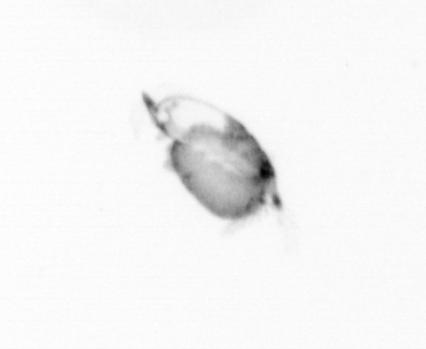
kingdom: Animalia
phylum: Arthropoda
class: Copepoda
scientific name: Copepoda
